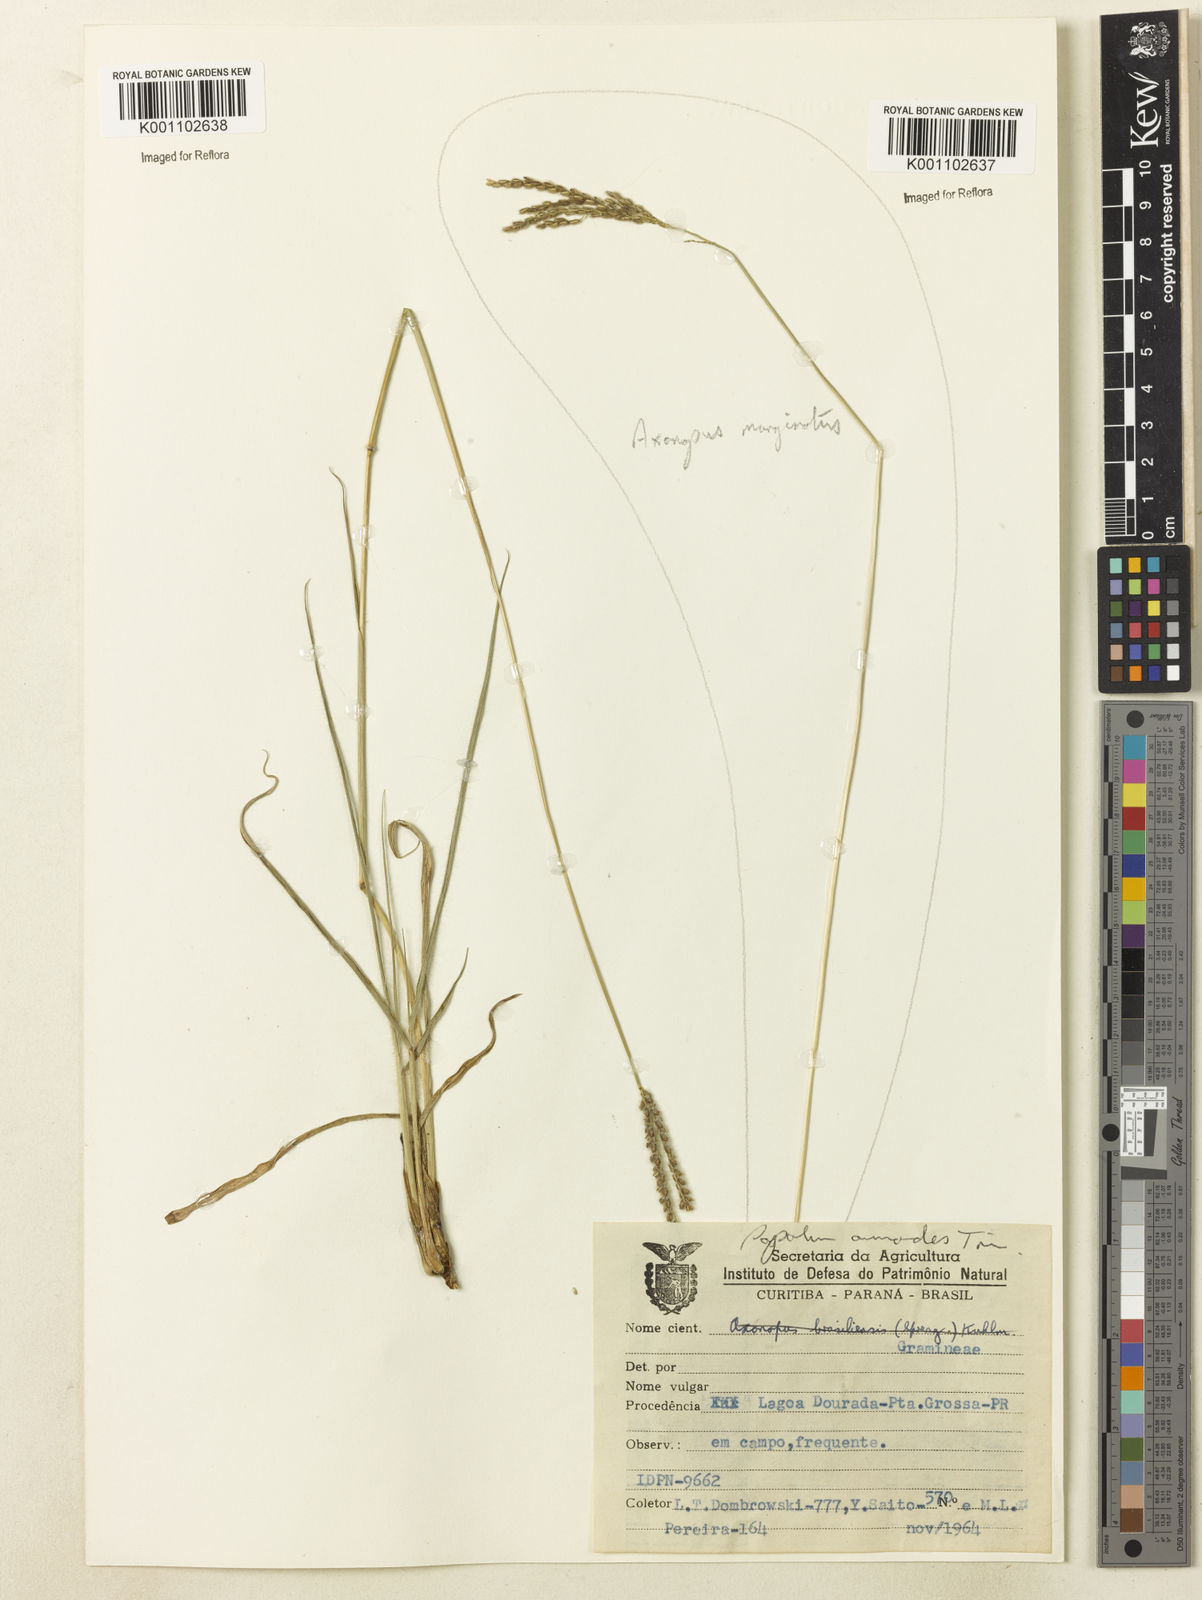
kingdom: Plantae
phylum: Tracheophyta
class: Liliopsida
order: Poales
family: Poaceae
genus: Paspalum
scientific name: Paspalum lachneum
